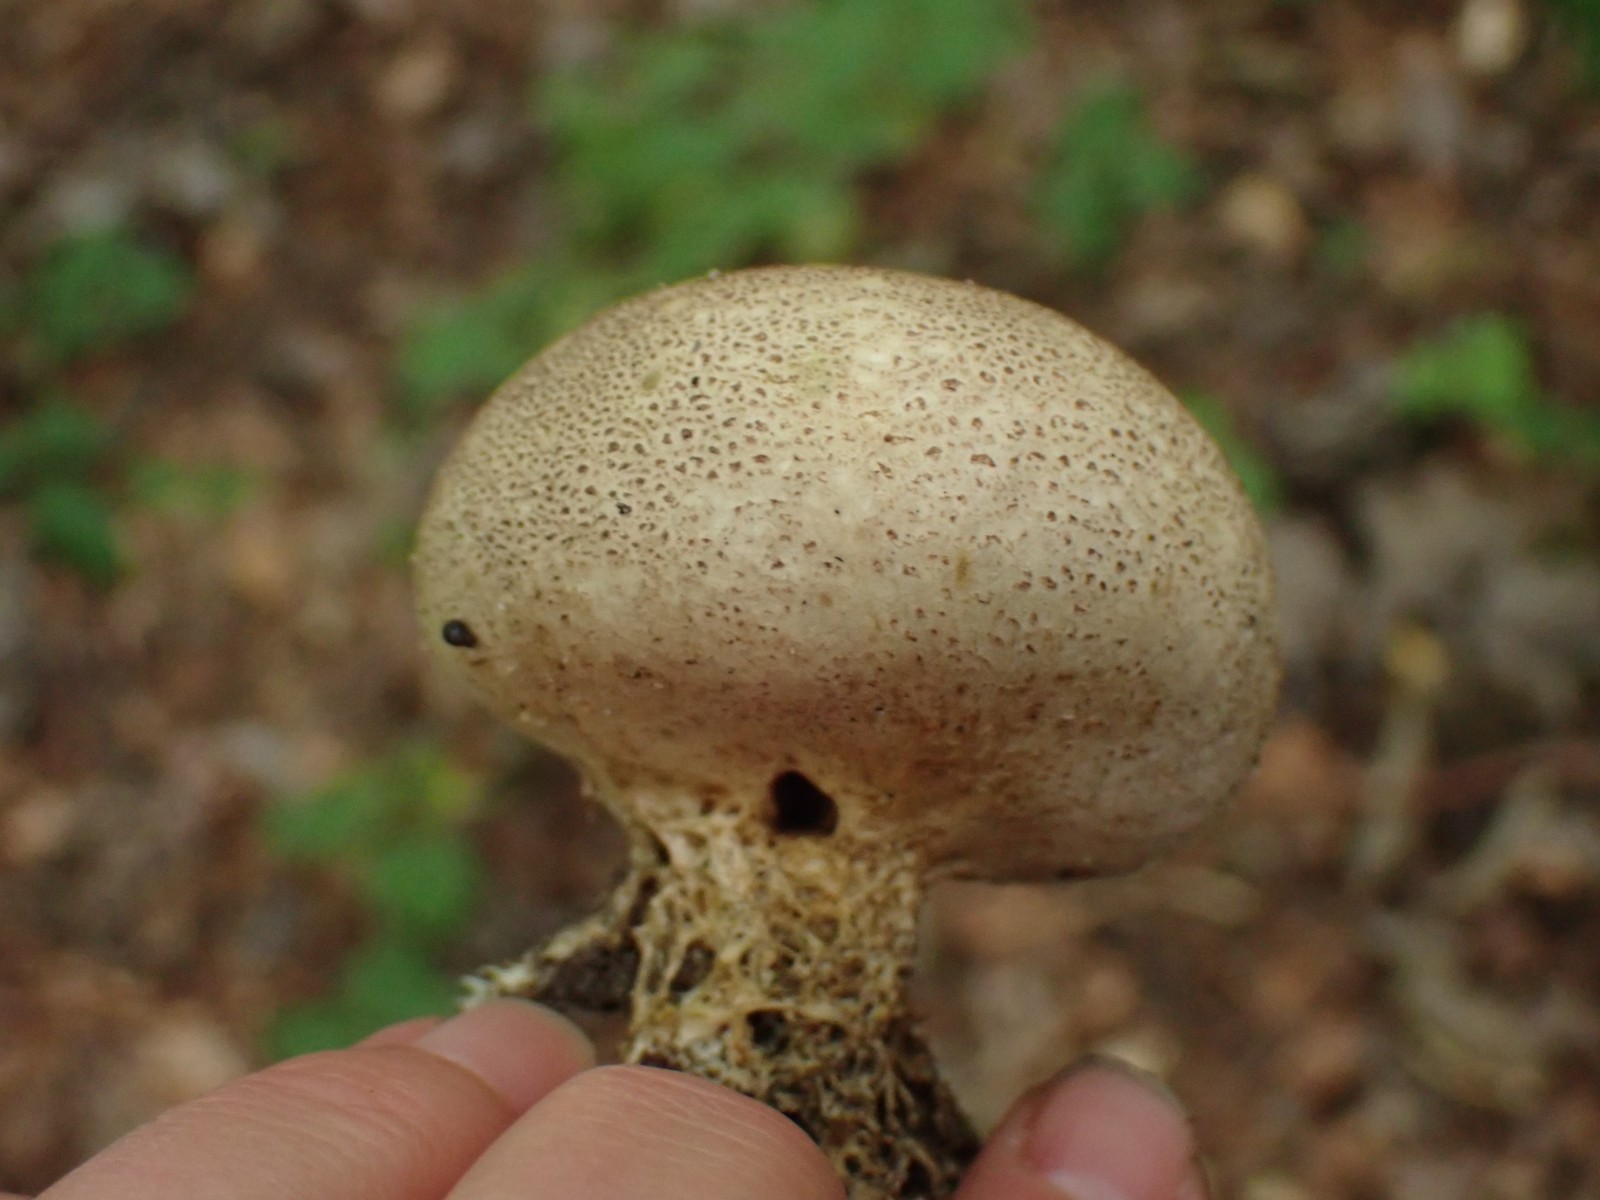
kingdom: Fungi
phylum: Basidiomycota
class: Agaricomycetes
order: Boletales
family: Sclerodermataceae
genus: Scleroderma
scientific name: Scleroderma verrucosum
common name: stilket bruskbold
